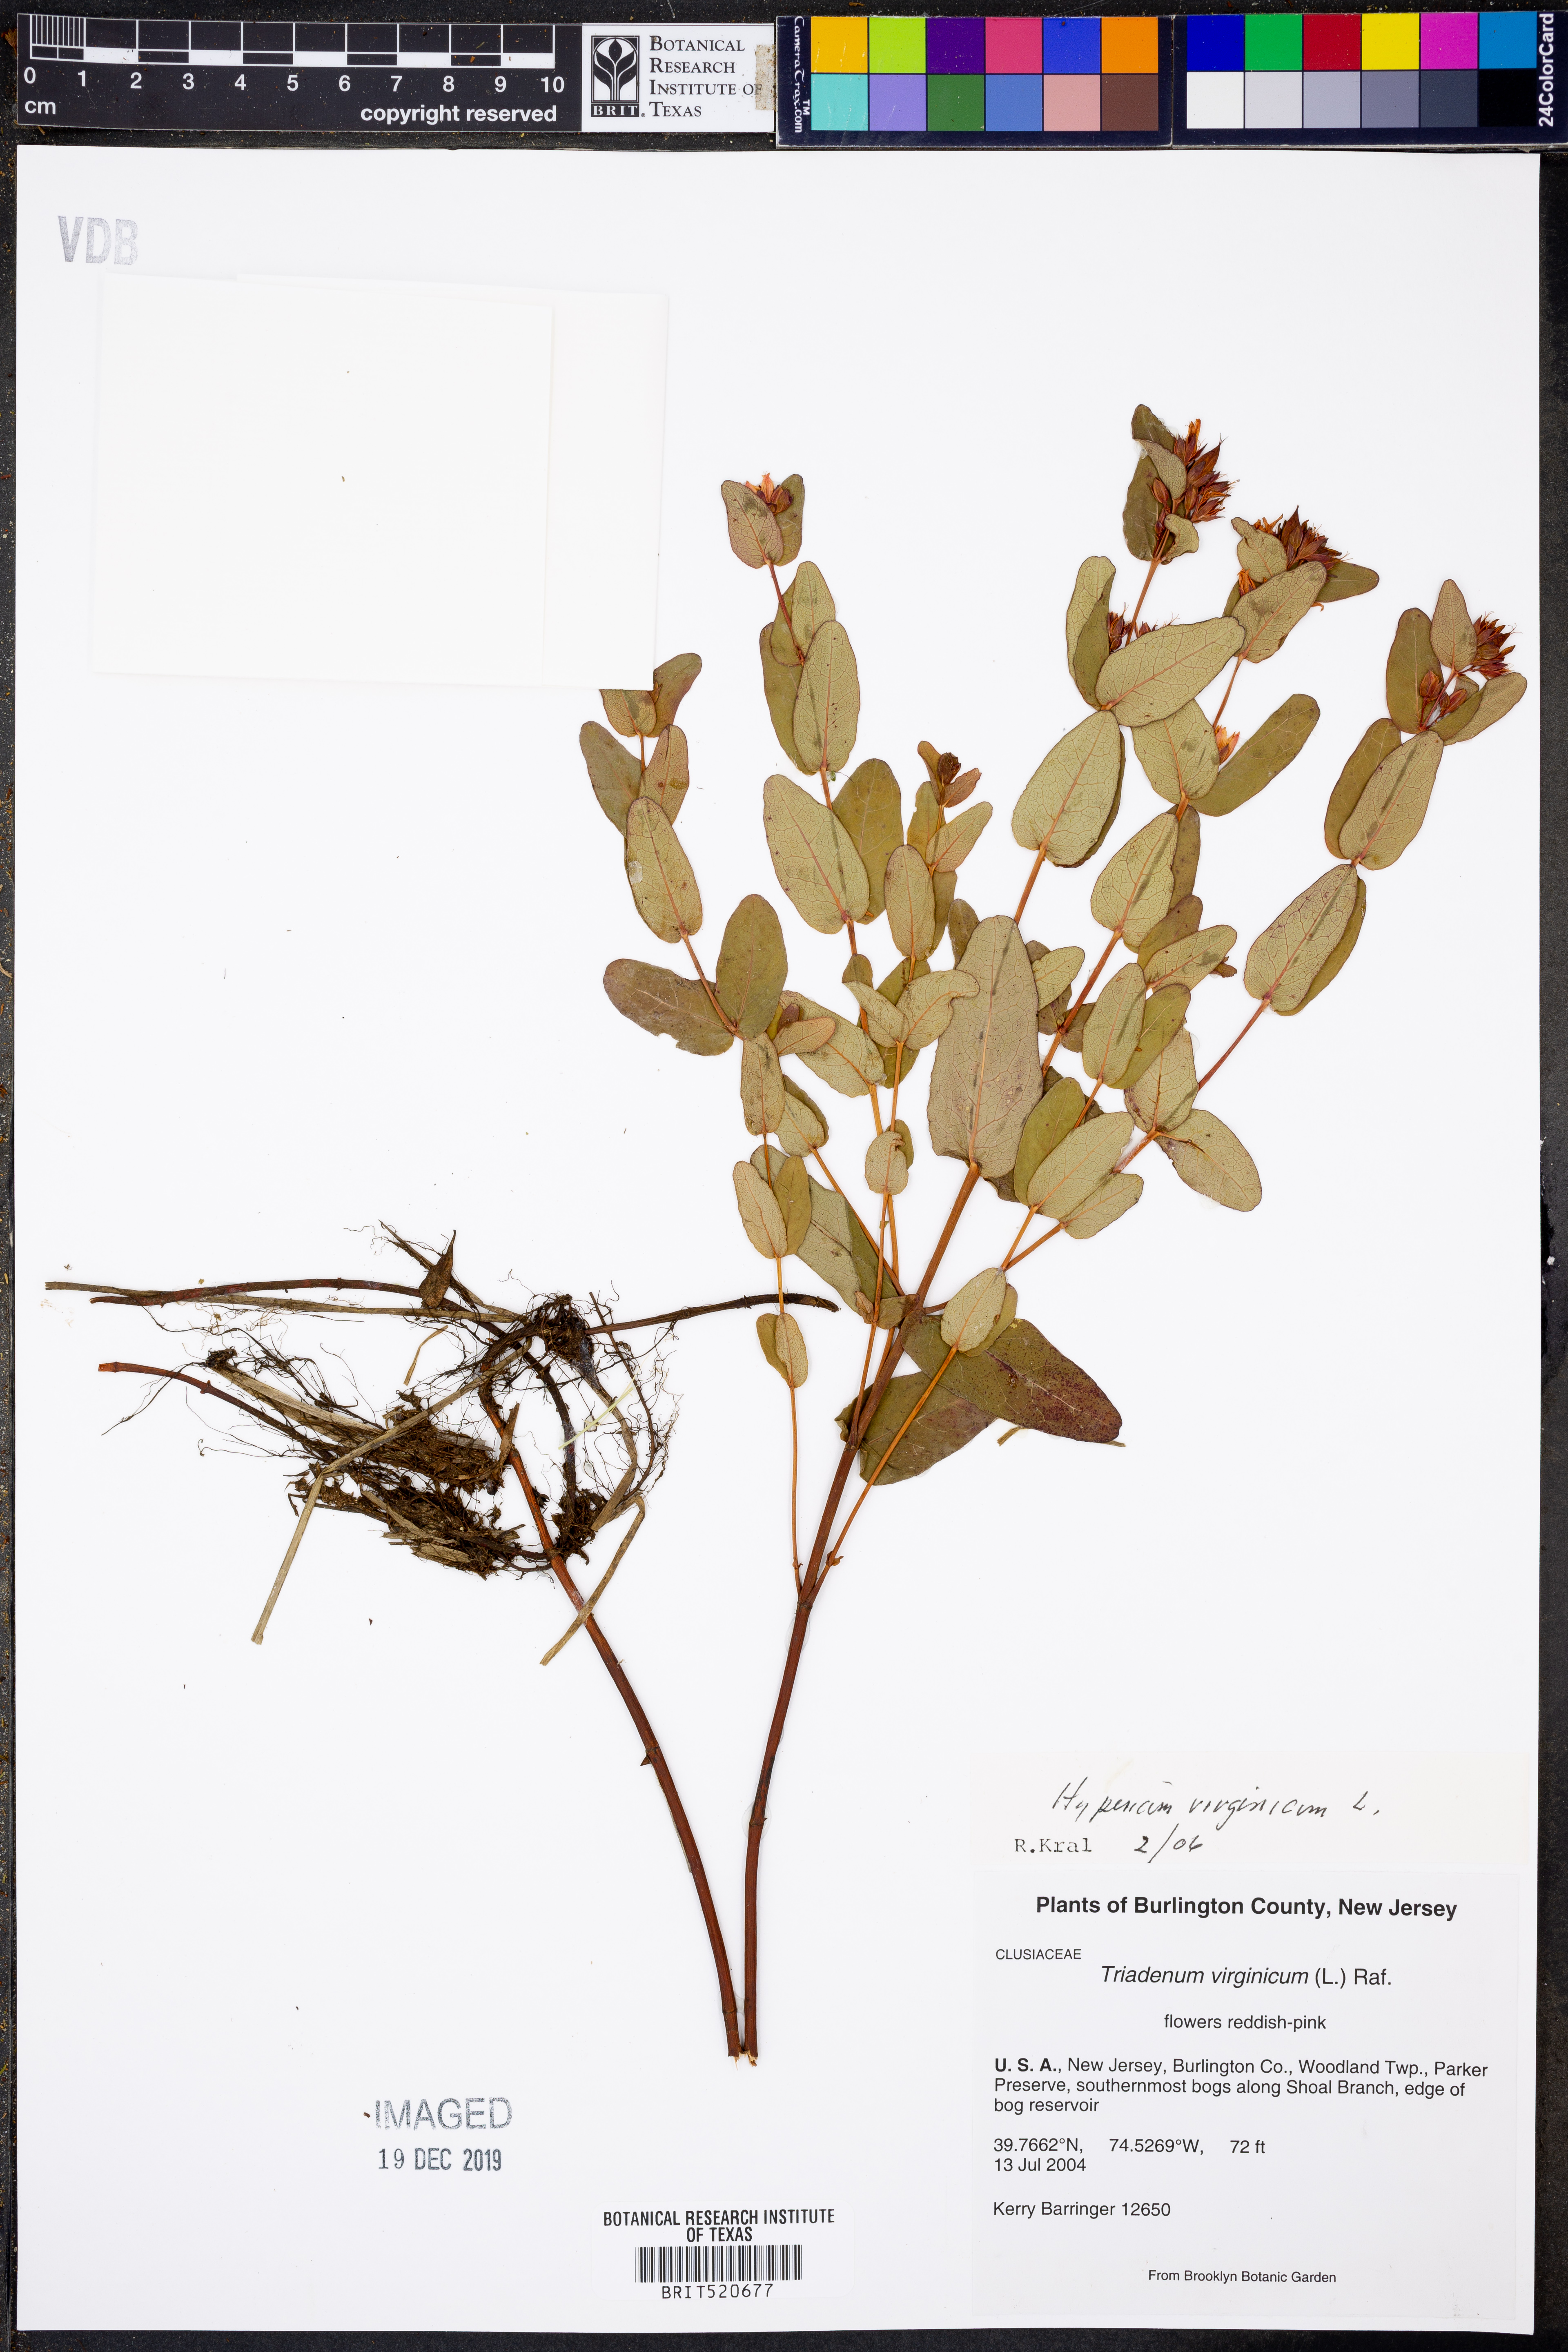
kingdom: Plantae
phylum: Tracheophyta
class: Magnoliopsida
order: Malpighiales
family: Hypericaceae
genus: Triadenum
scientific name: Triadenum virginicum
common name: Marsh st. john's-wort
